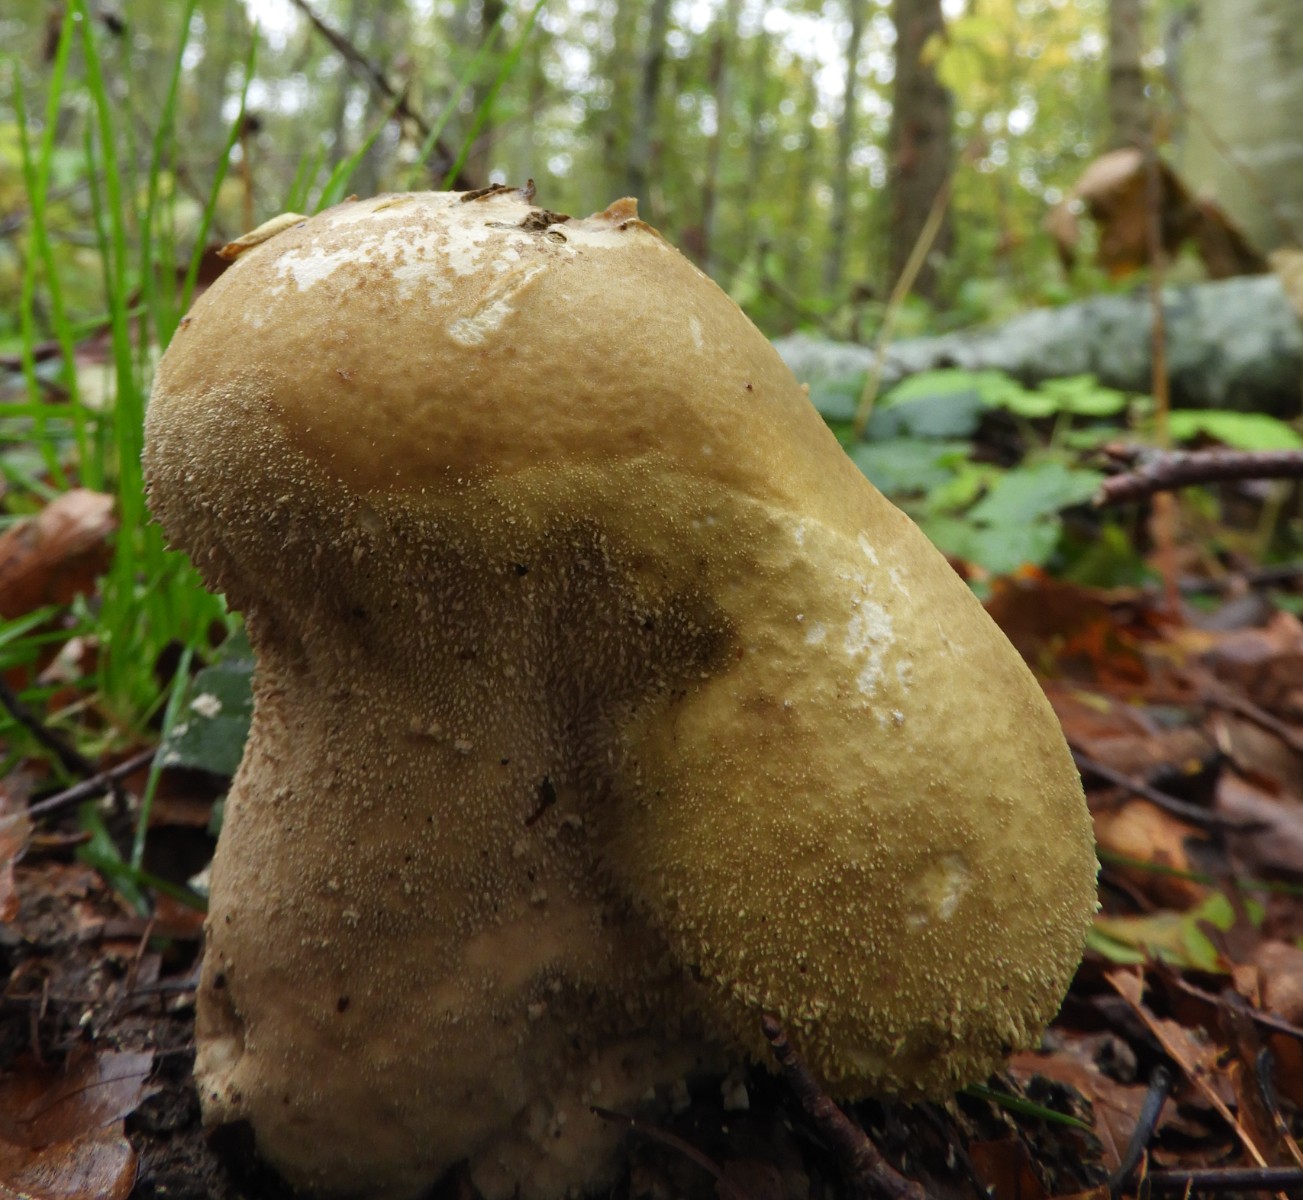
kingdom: Fungi
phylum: Basidiomycota
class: Agaricomycetes
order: Agaricales
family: Lycoperdaceae
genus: Lycoperdon
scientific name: Lycoperdon excipuliforme
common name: højstokket støvbold
